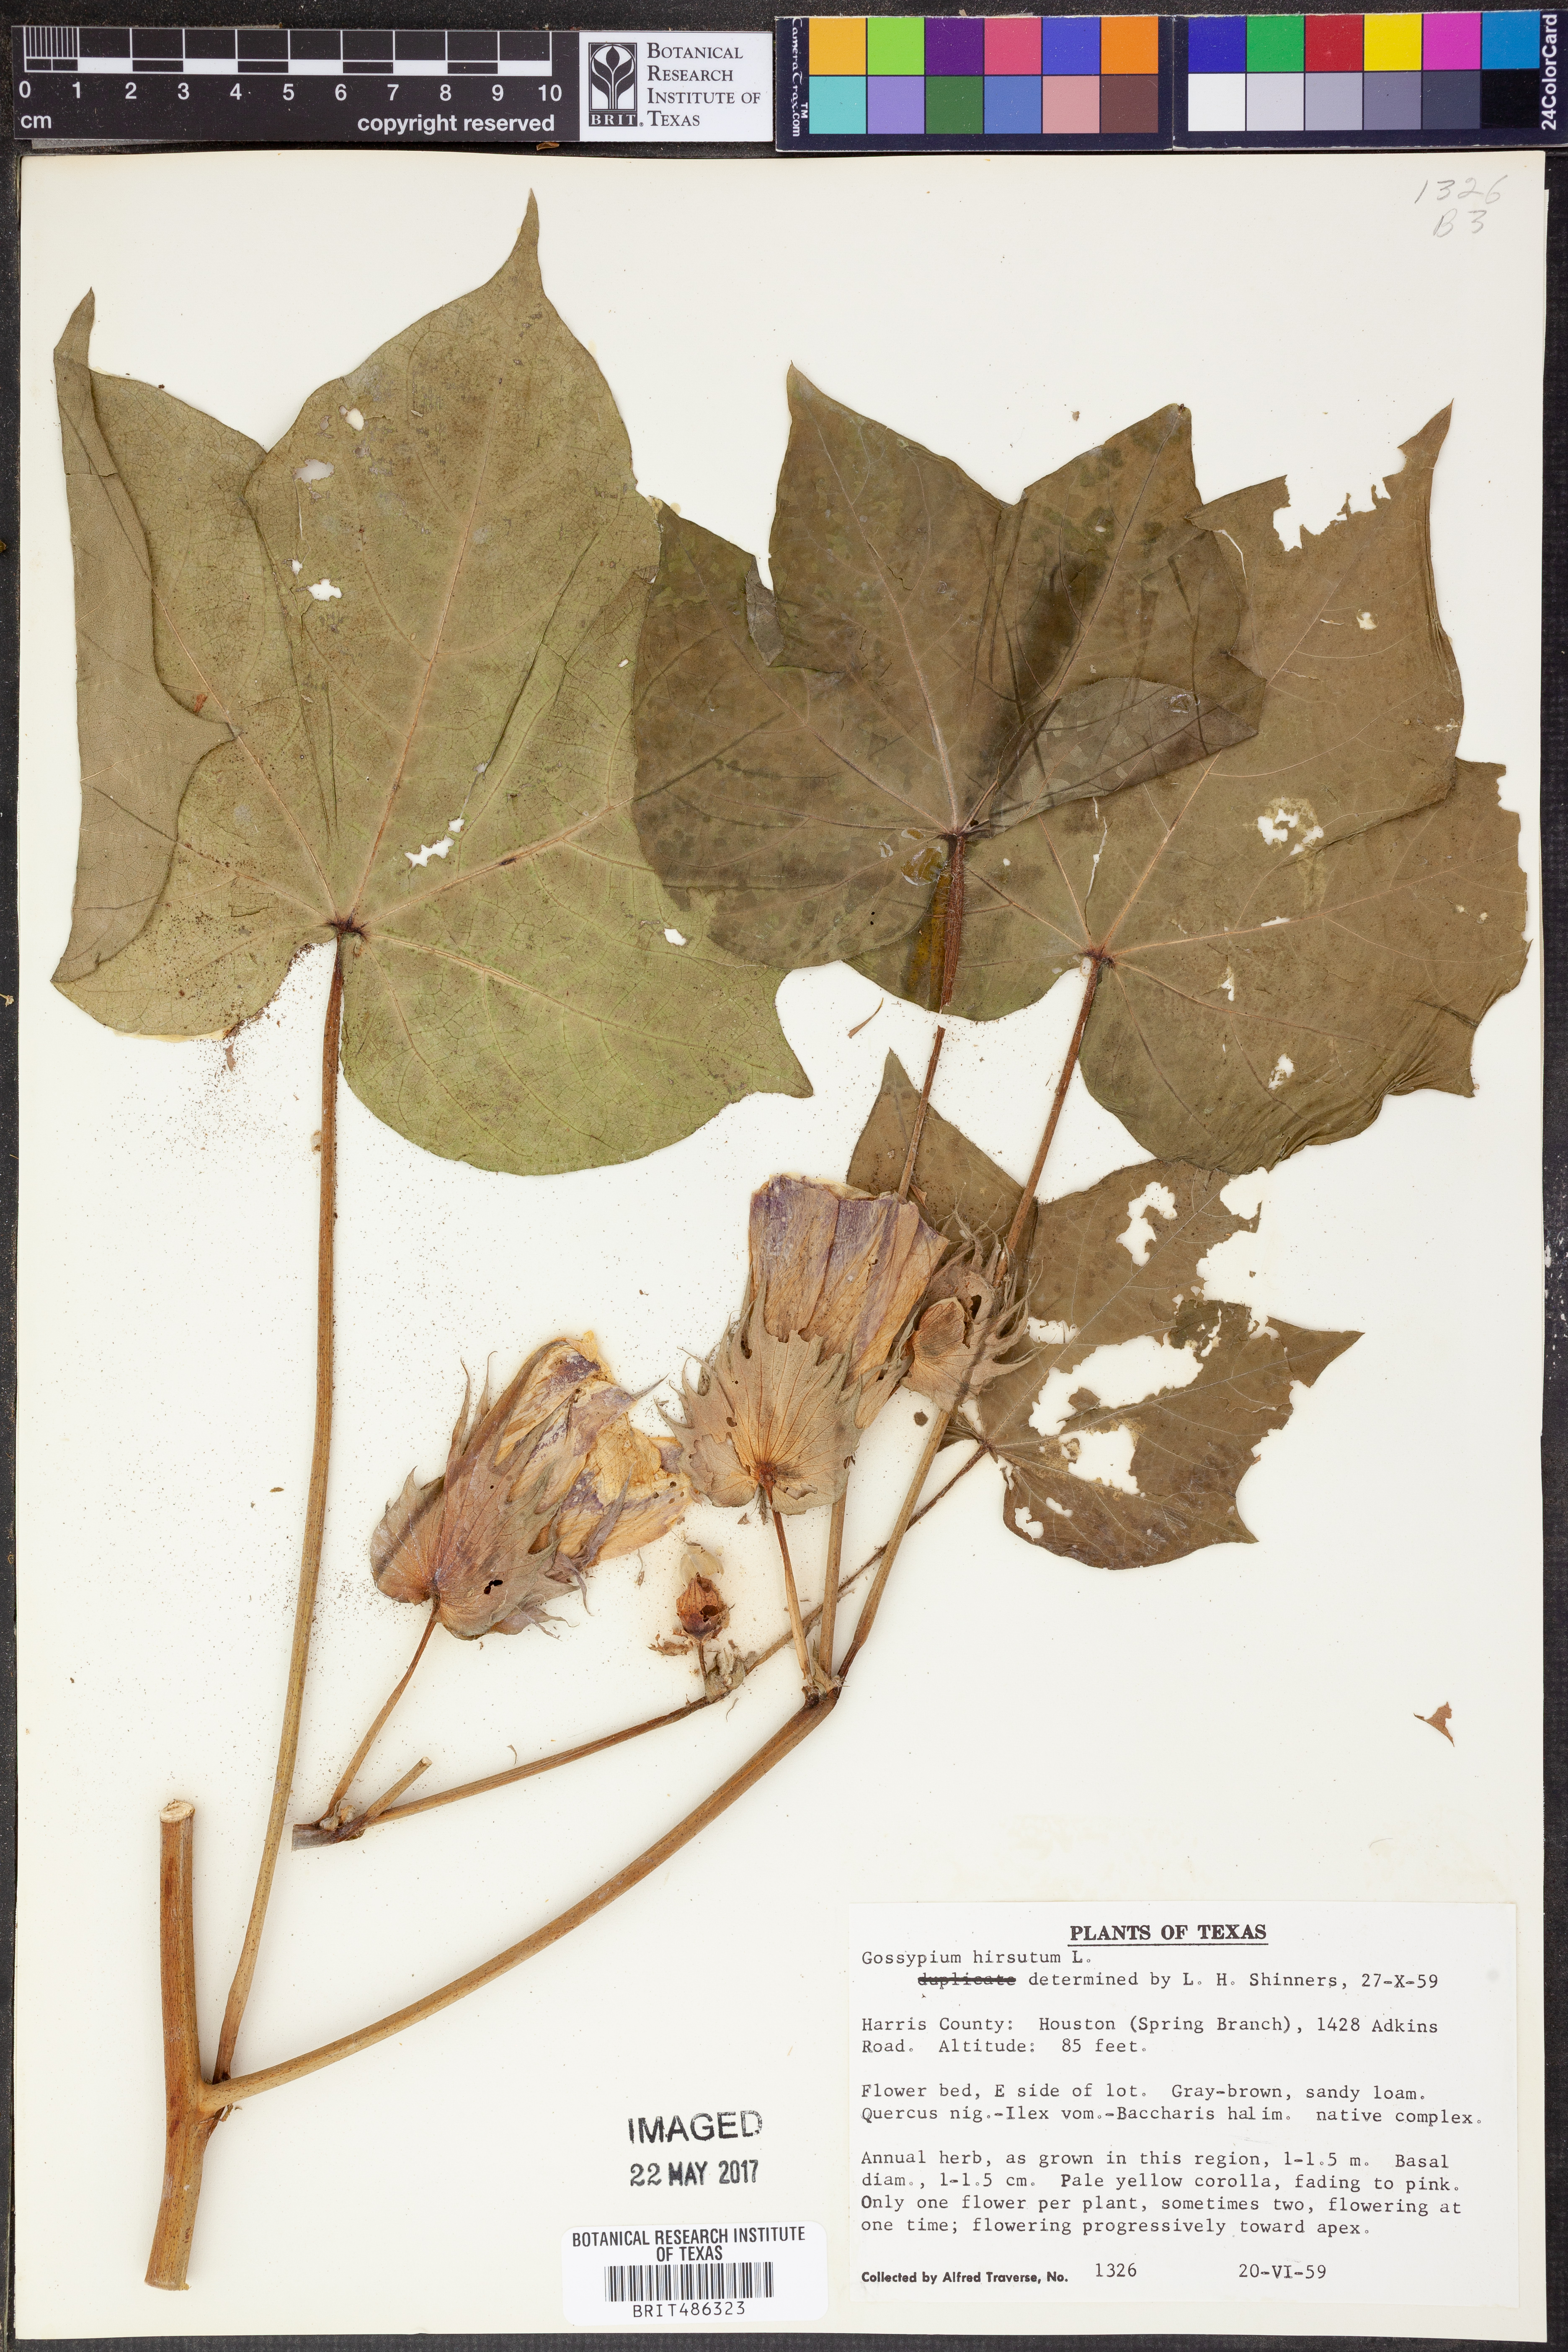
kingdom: Plantae
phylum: Tracheophyta
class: Magnoliopsida
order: Malvales
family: Malvaceae
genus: Gossypium
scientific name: Gossypium hirsutum
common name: Cotton
